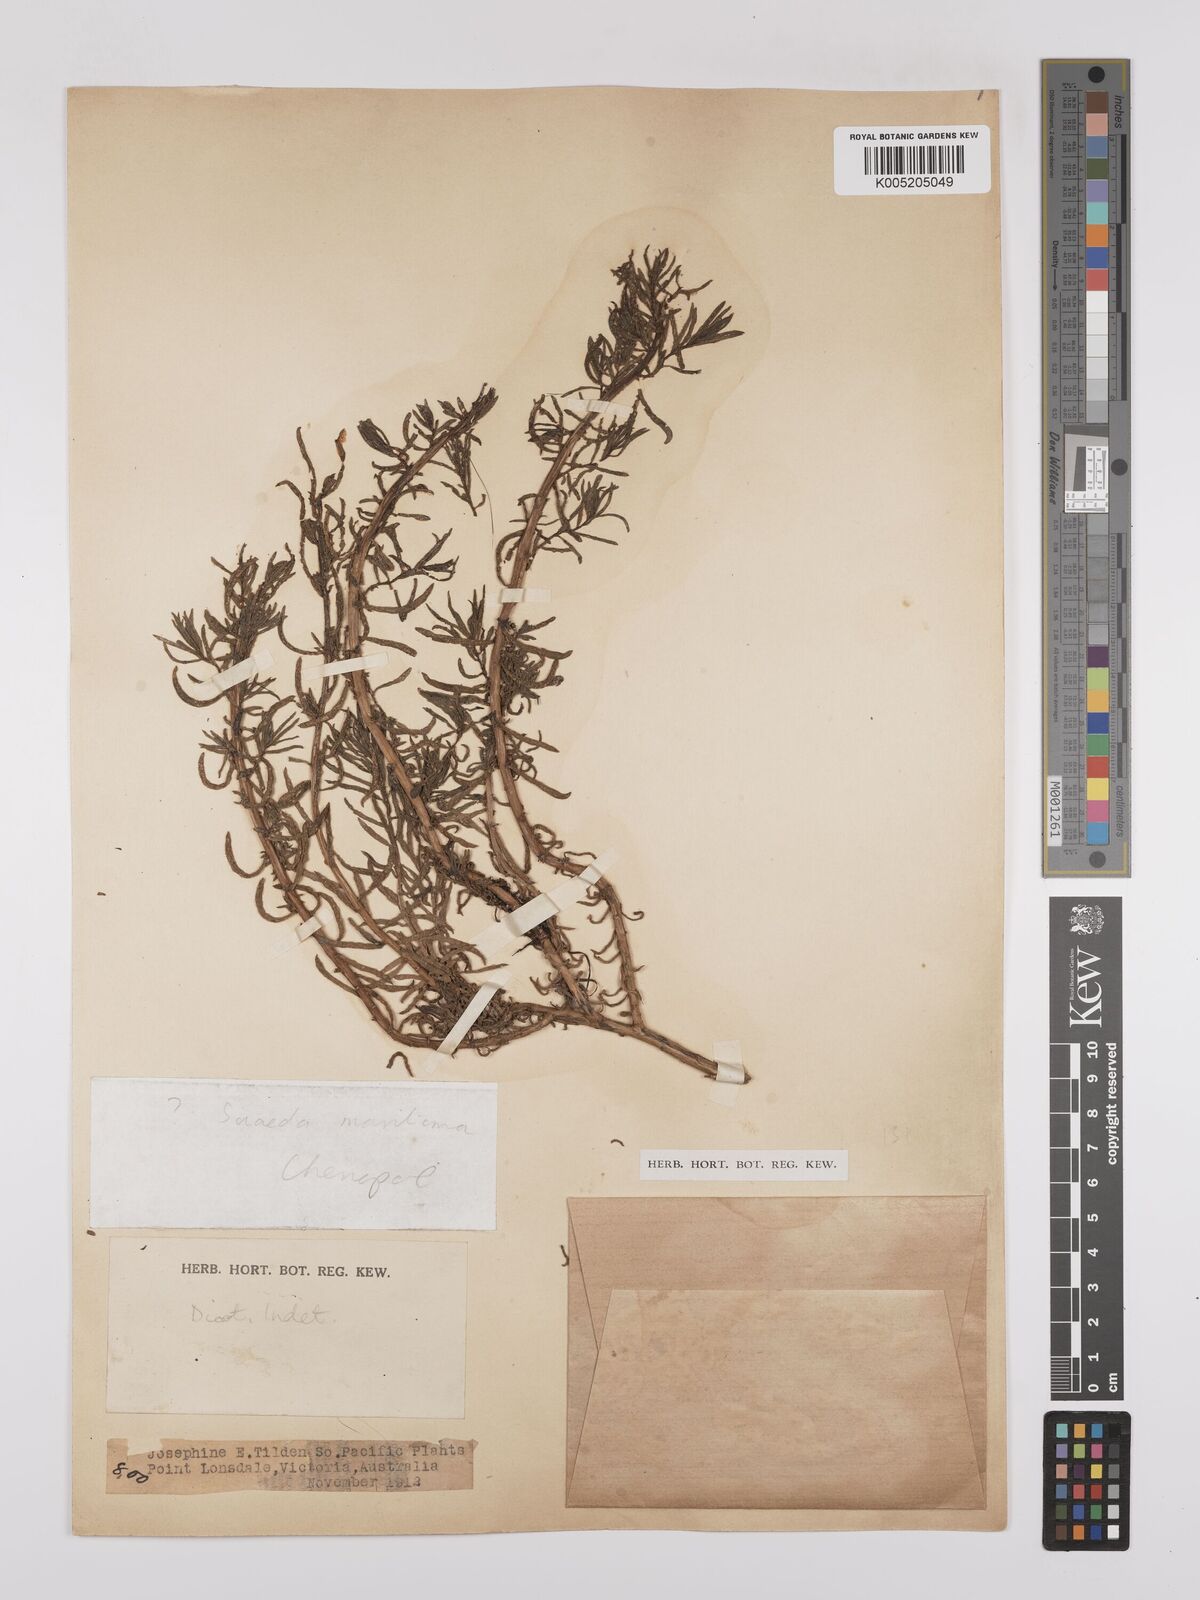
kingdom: Plantae
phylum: Tracheophyta
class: Magnoliopsida
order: Caryophyllales
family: Amaranthaceae
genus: Suaeda
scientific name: Suaeda australis
